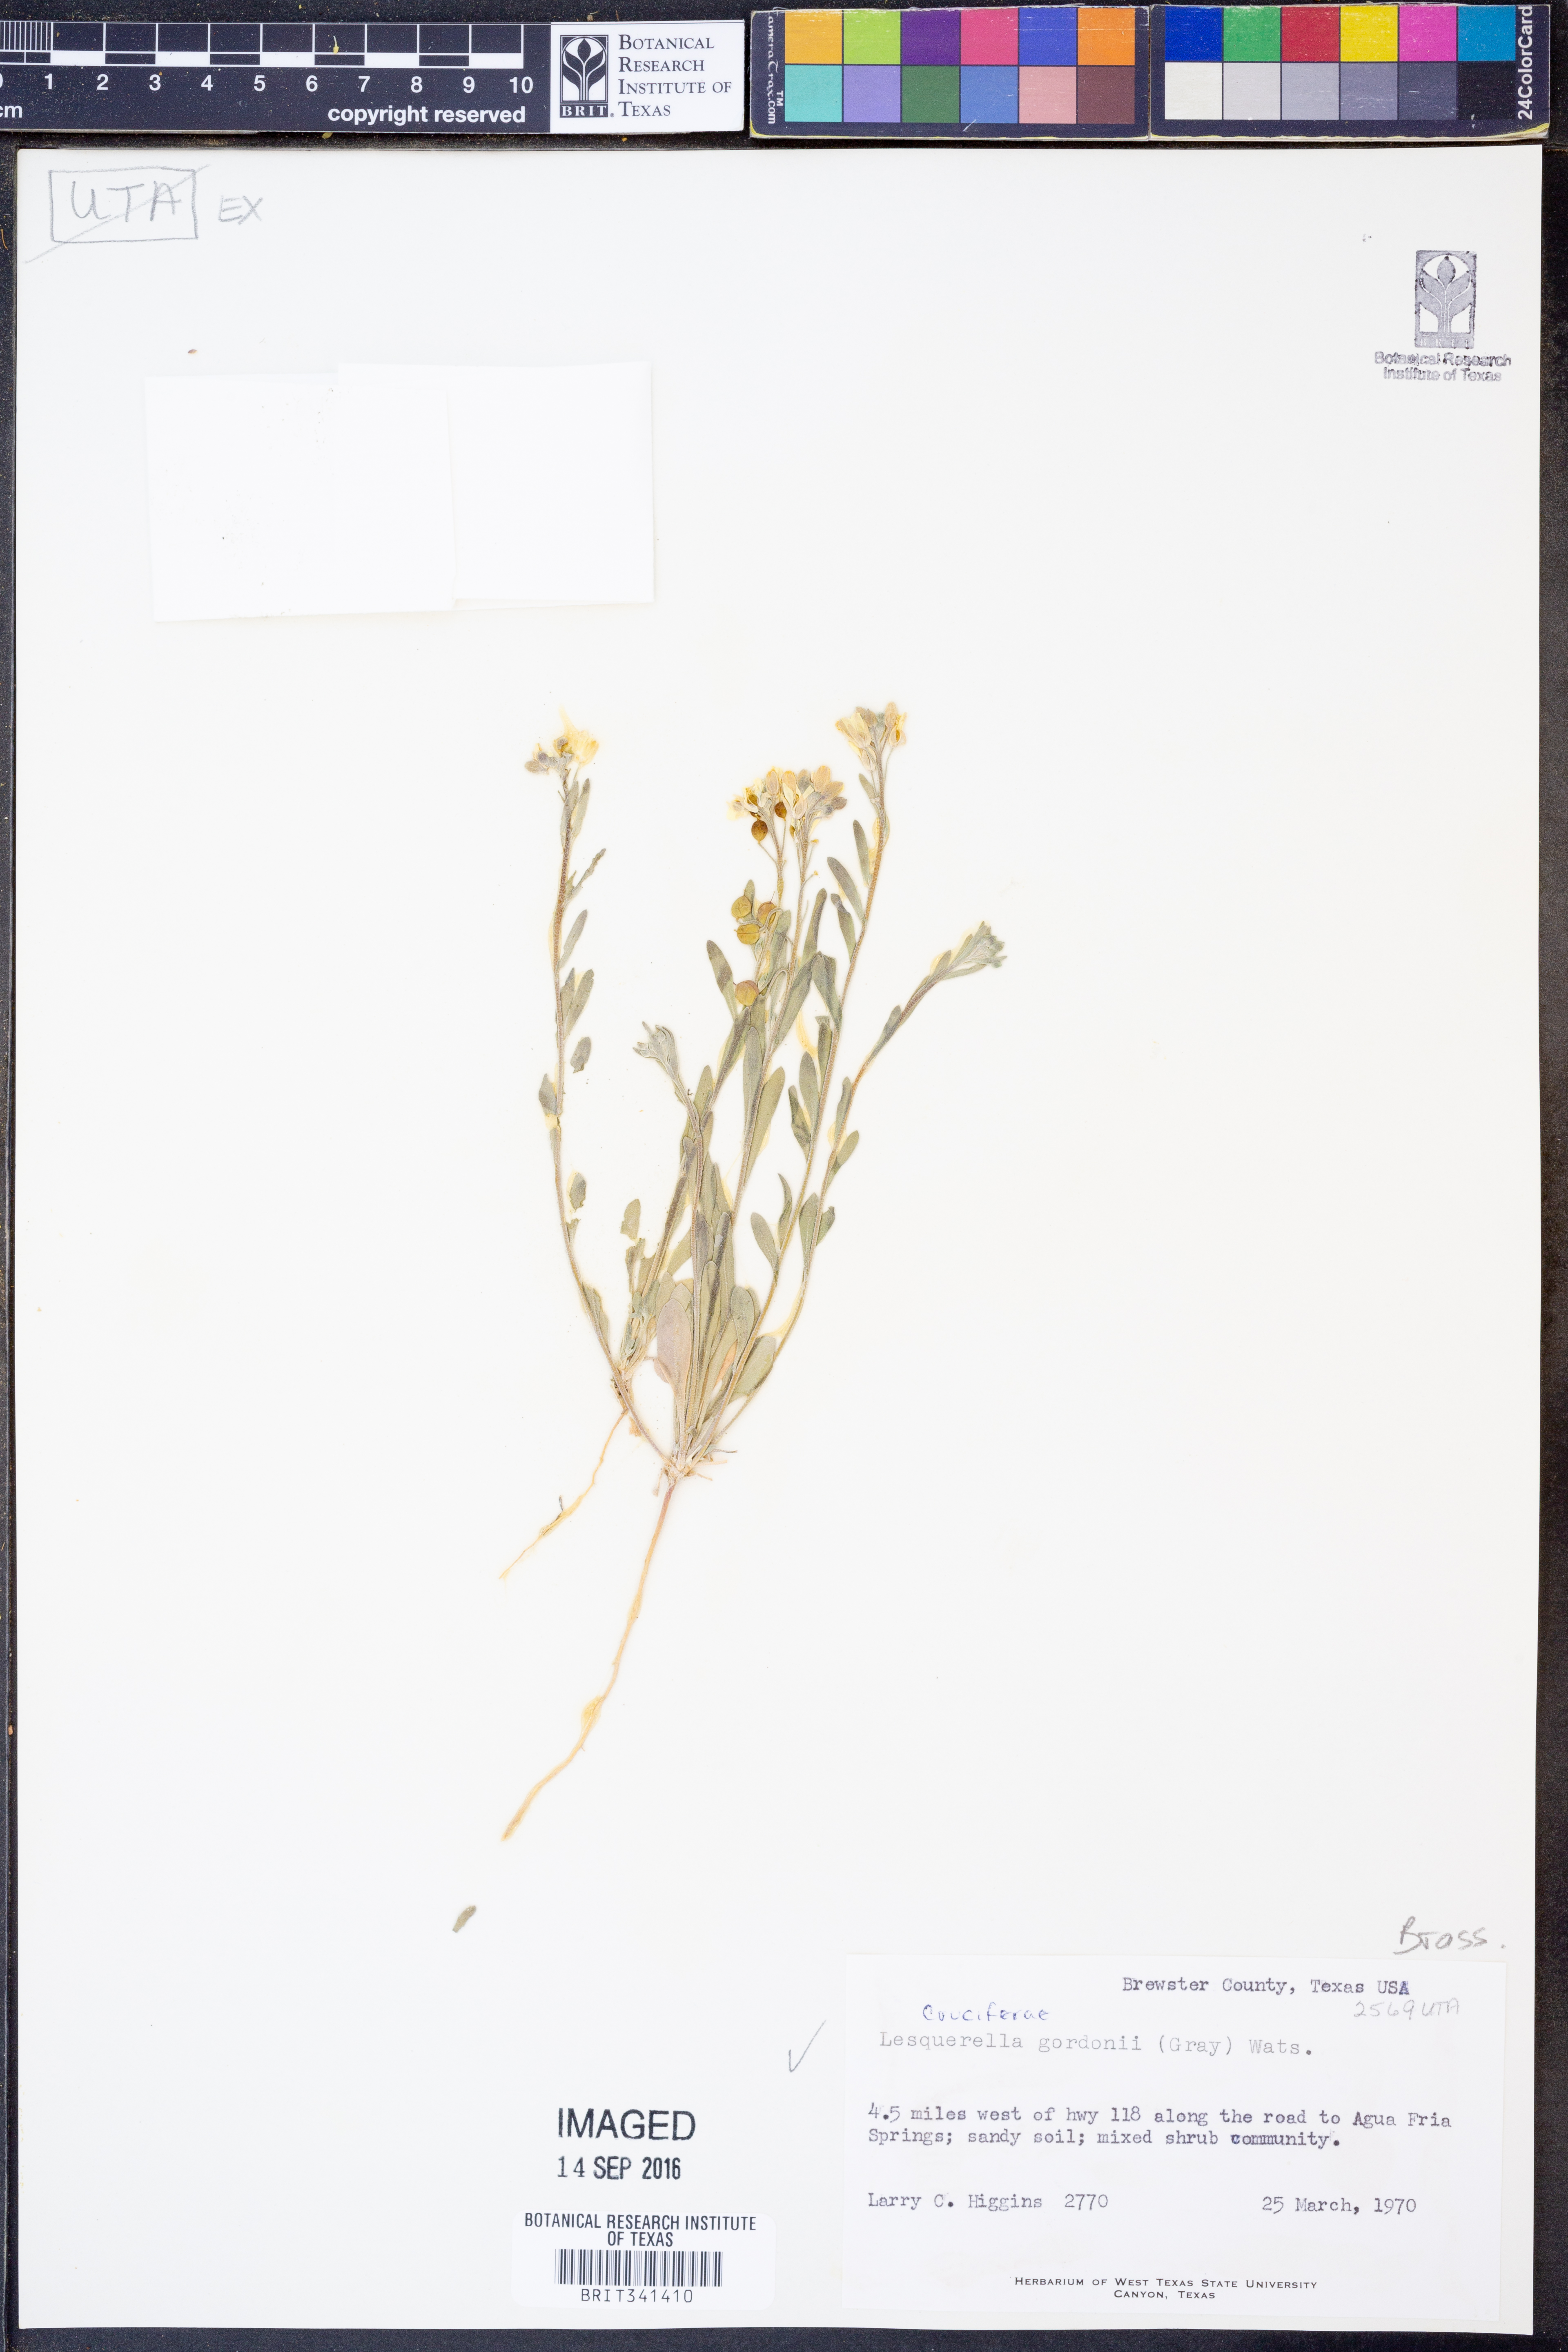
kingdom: Plantae
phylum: Tracheophyta
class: Magnoliopsida
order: Brassicales
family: Brassicaceae
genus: Physaria
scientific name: Physaria gordonii
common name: Gordon's bladderpod
